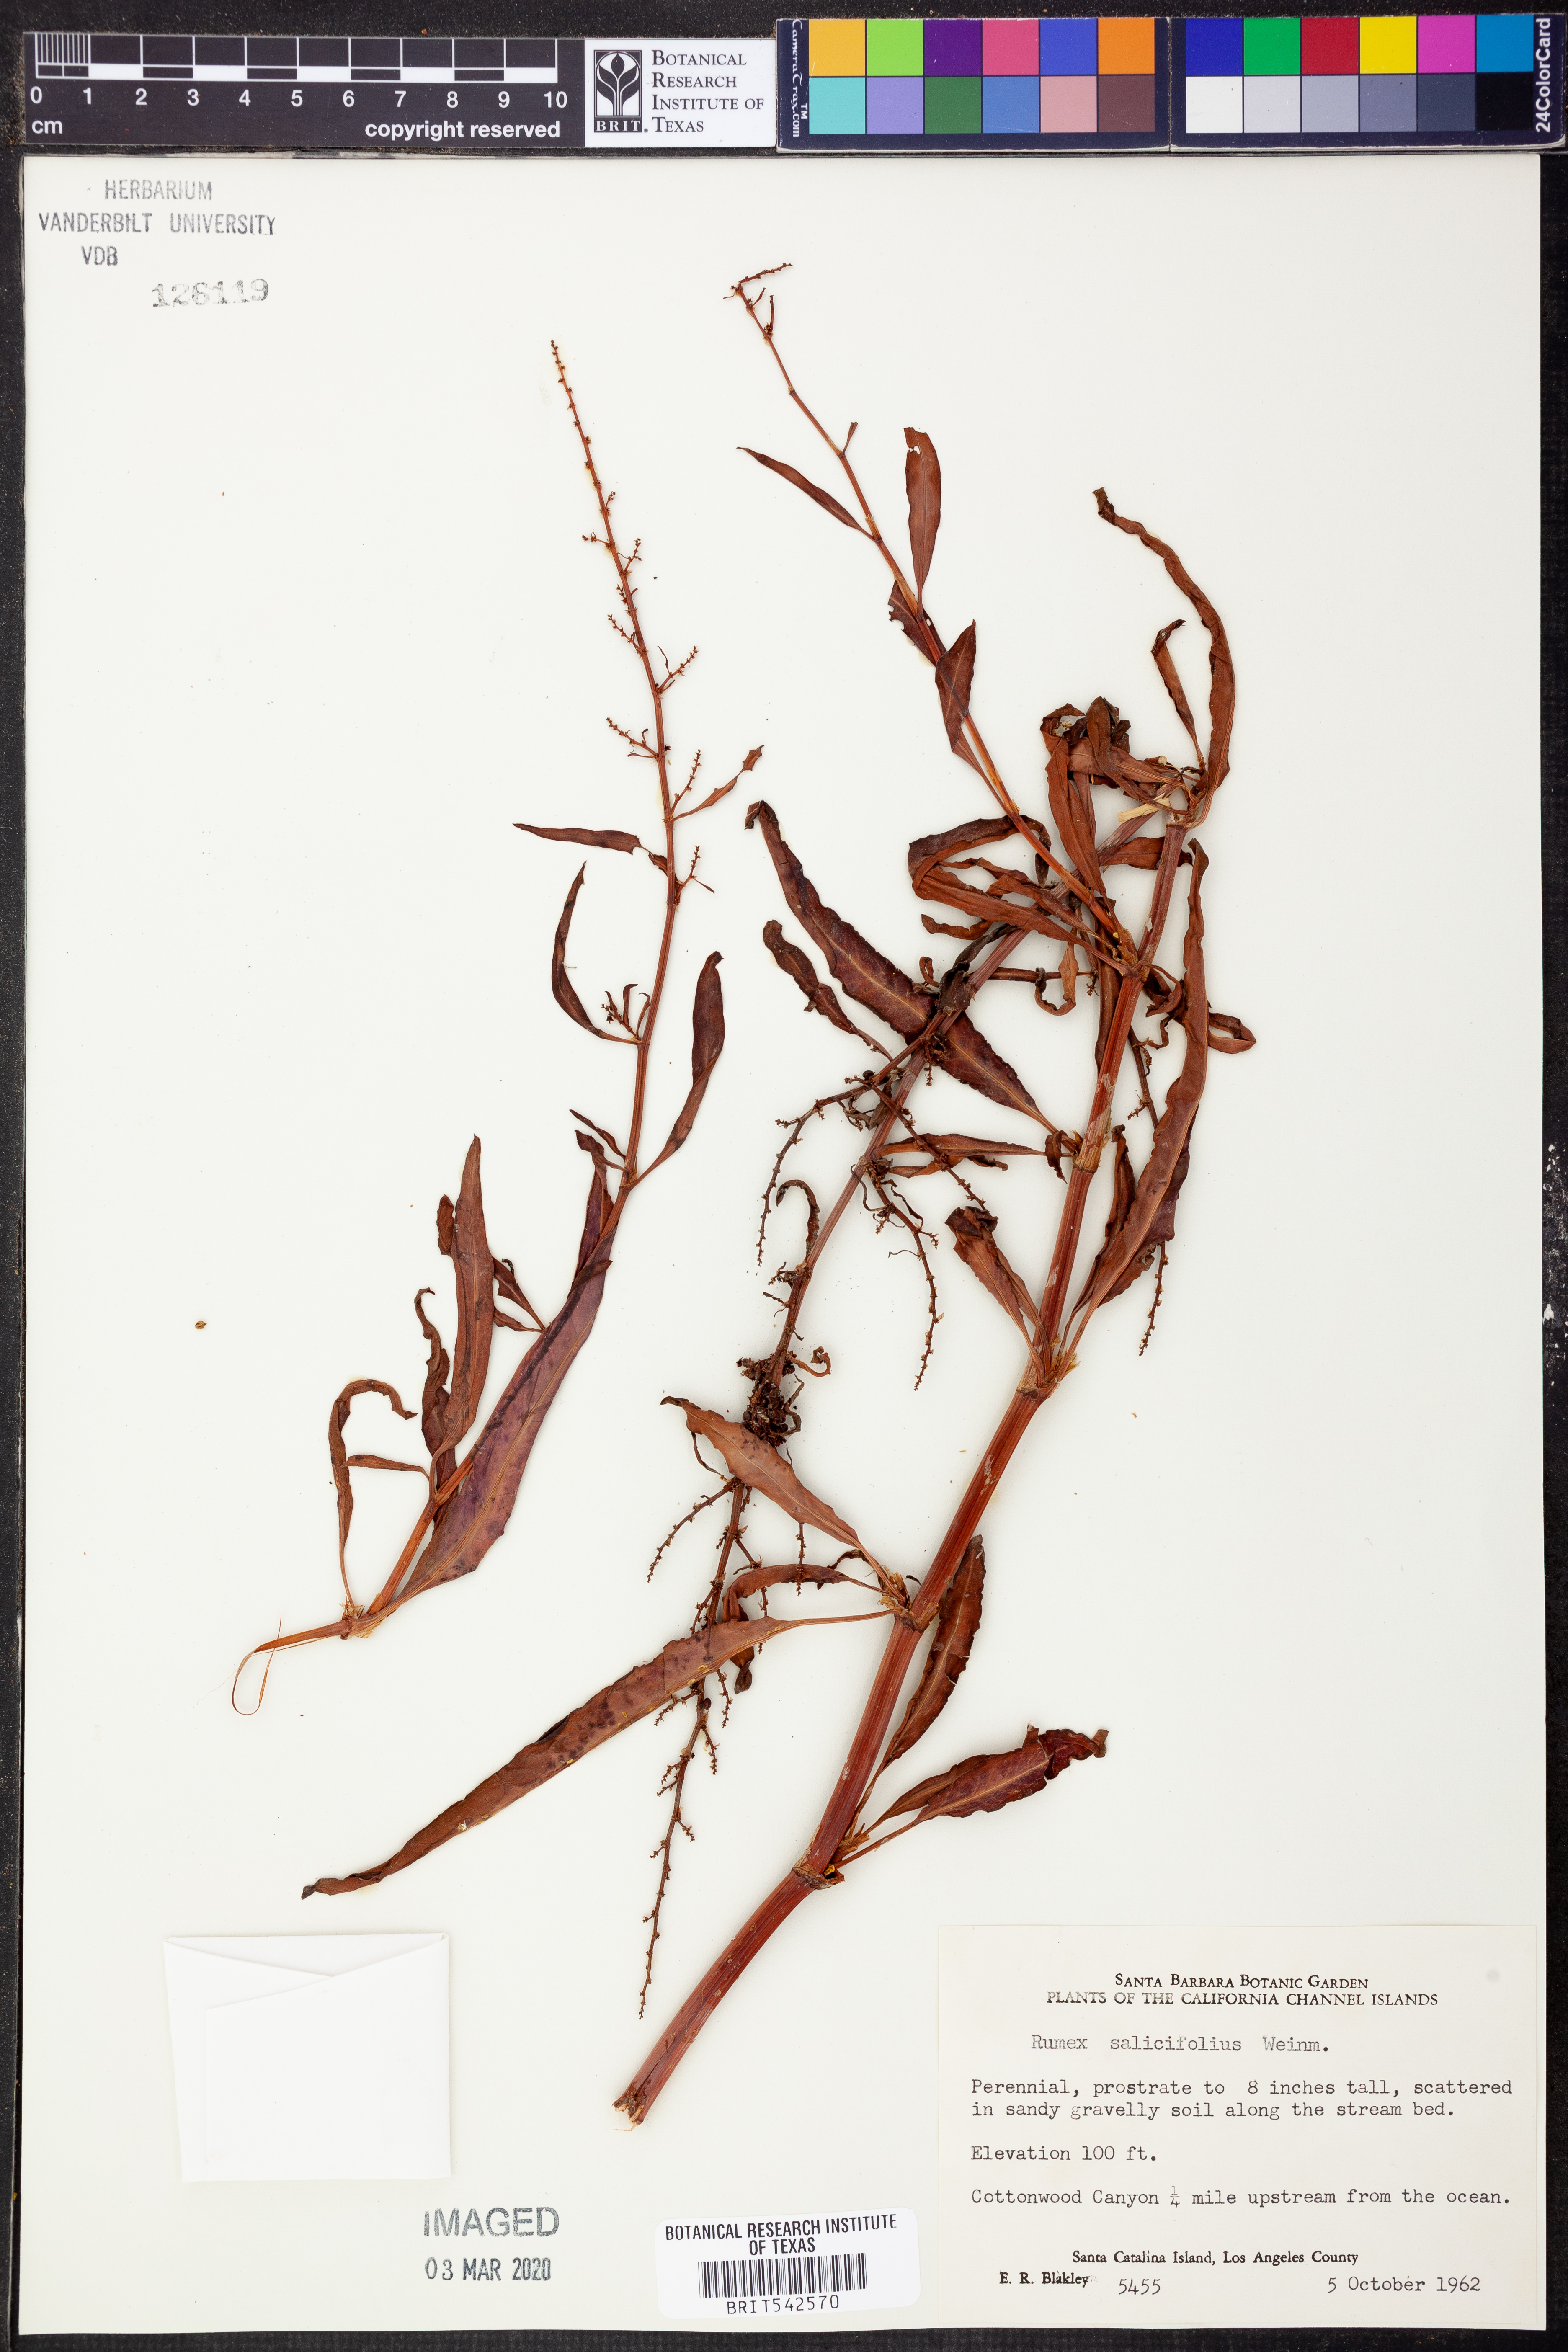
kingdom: Plantae
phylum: Tracheophyta
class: Magnoliopsida
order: Caryophyllales
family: Polygonaceae
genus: Rumex
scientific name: Rumex salicifolius
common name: Willow-leaved dock
